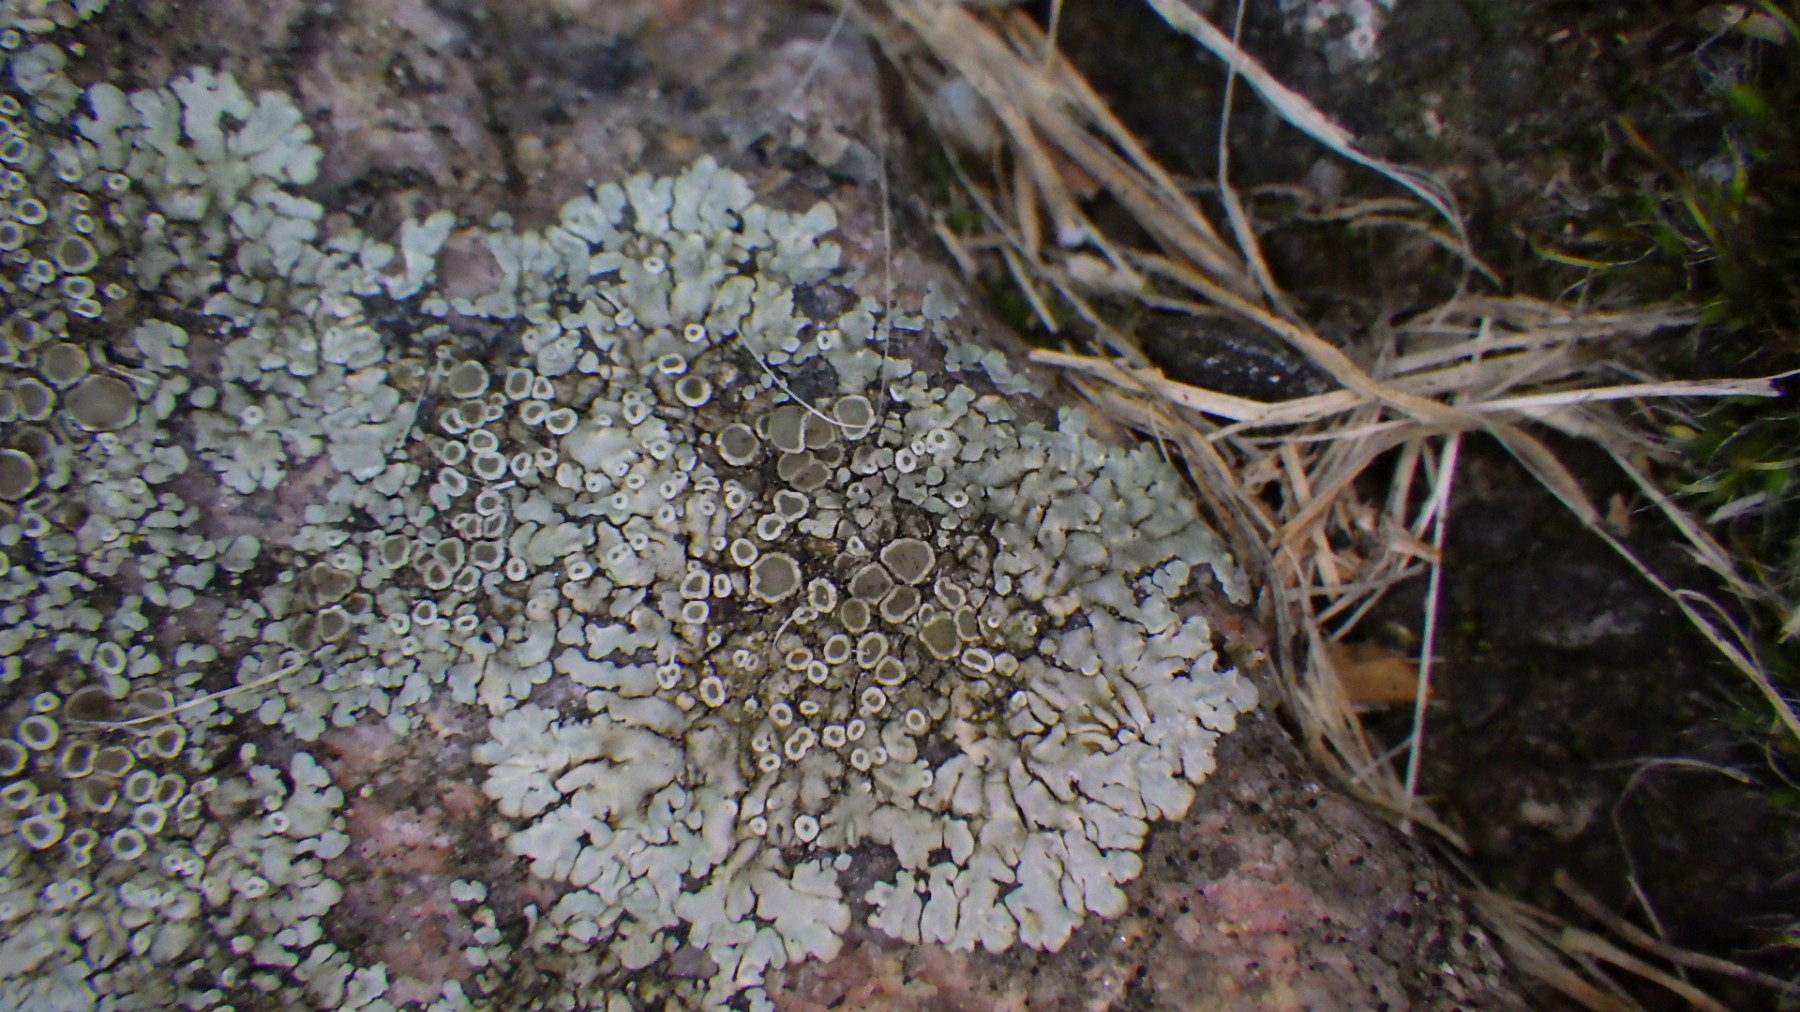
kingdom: Fungi
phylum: Ascomycota
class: Lecanoromycetes
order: Lecanorales
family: Lecanoraceae
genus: Protoparmeliopsis
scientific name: Protoparmeliopsis muralis
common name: randfliget kantskivelav
